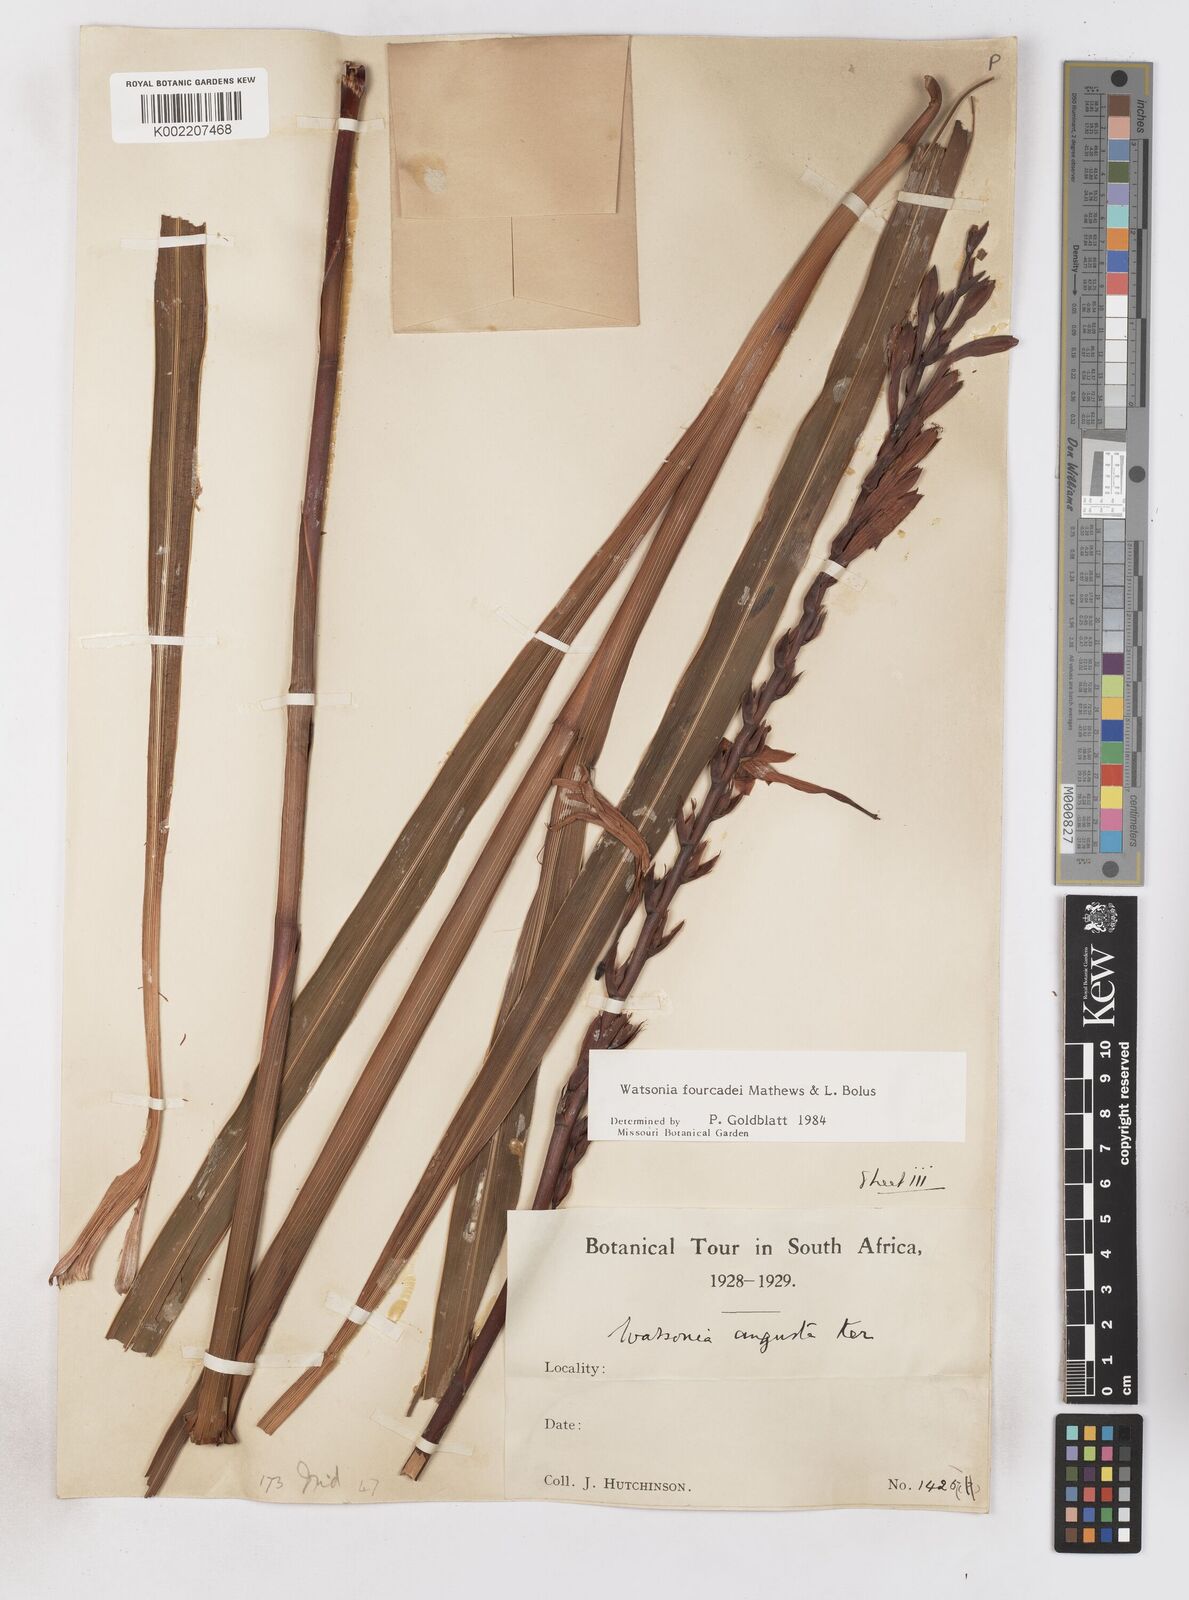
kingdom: Plantae
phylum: Tracheophyta
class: Liliopsida
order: Asparagales
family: Iridaceae
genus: Watsonia
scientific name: Watsonia fourcadei
